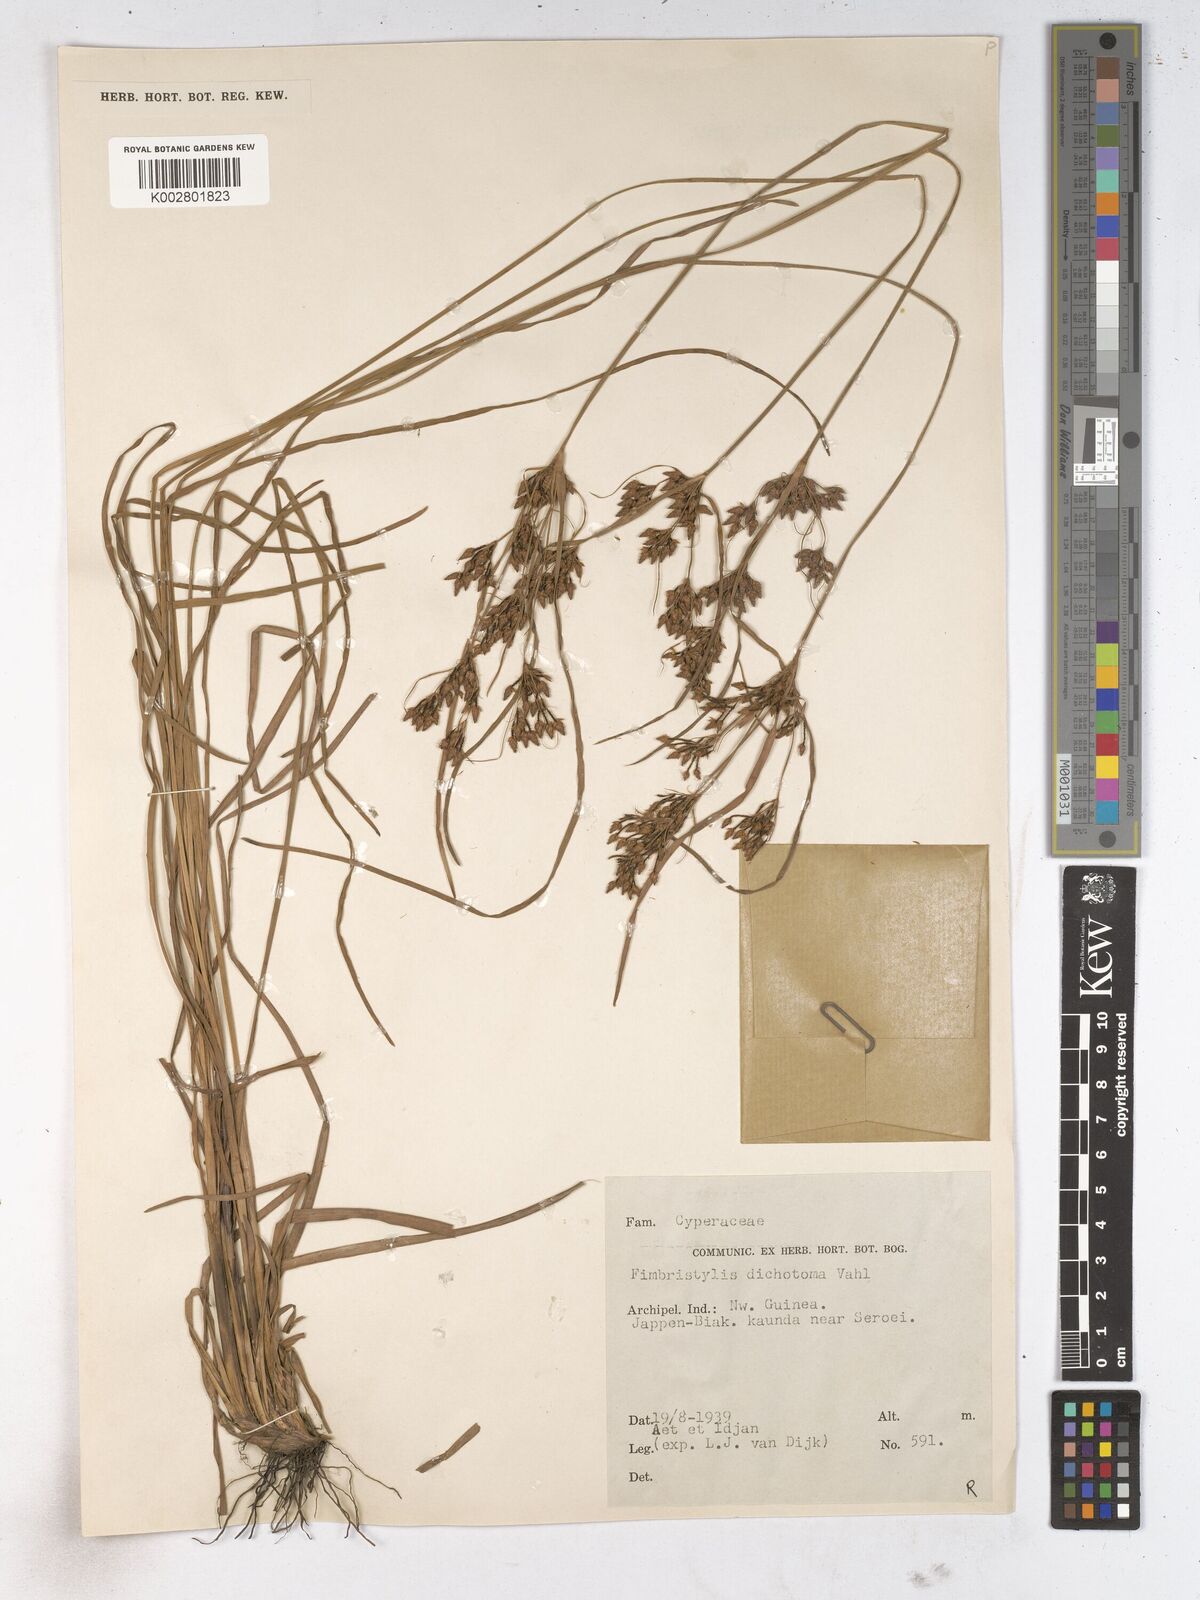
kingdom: Plantae
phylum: Tracheophyta
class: Liliopsida
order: Poales
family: Cyperaceae
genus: Fimbristylis
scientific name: Fimbristylis dichotoma
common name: Forked fimbry
